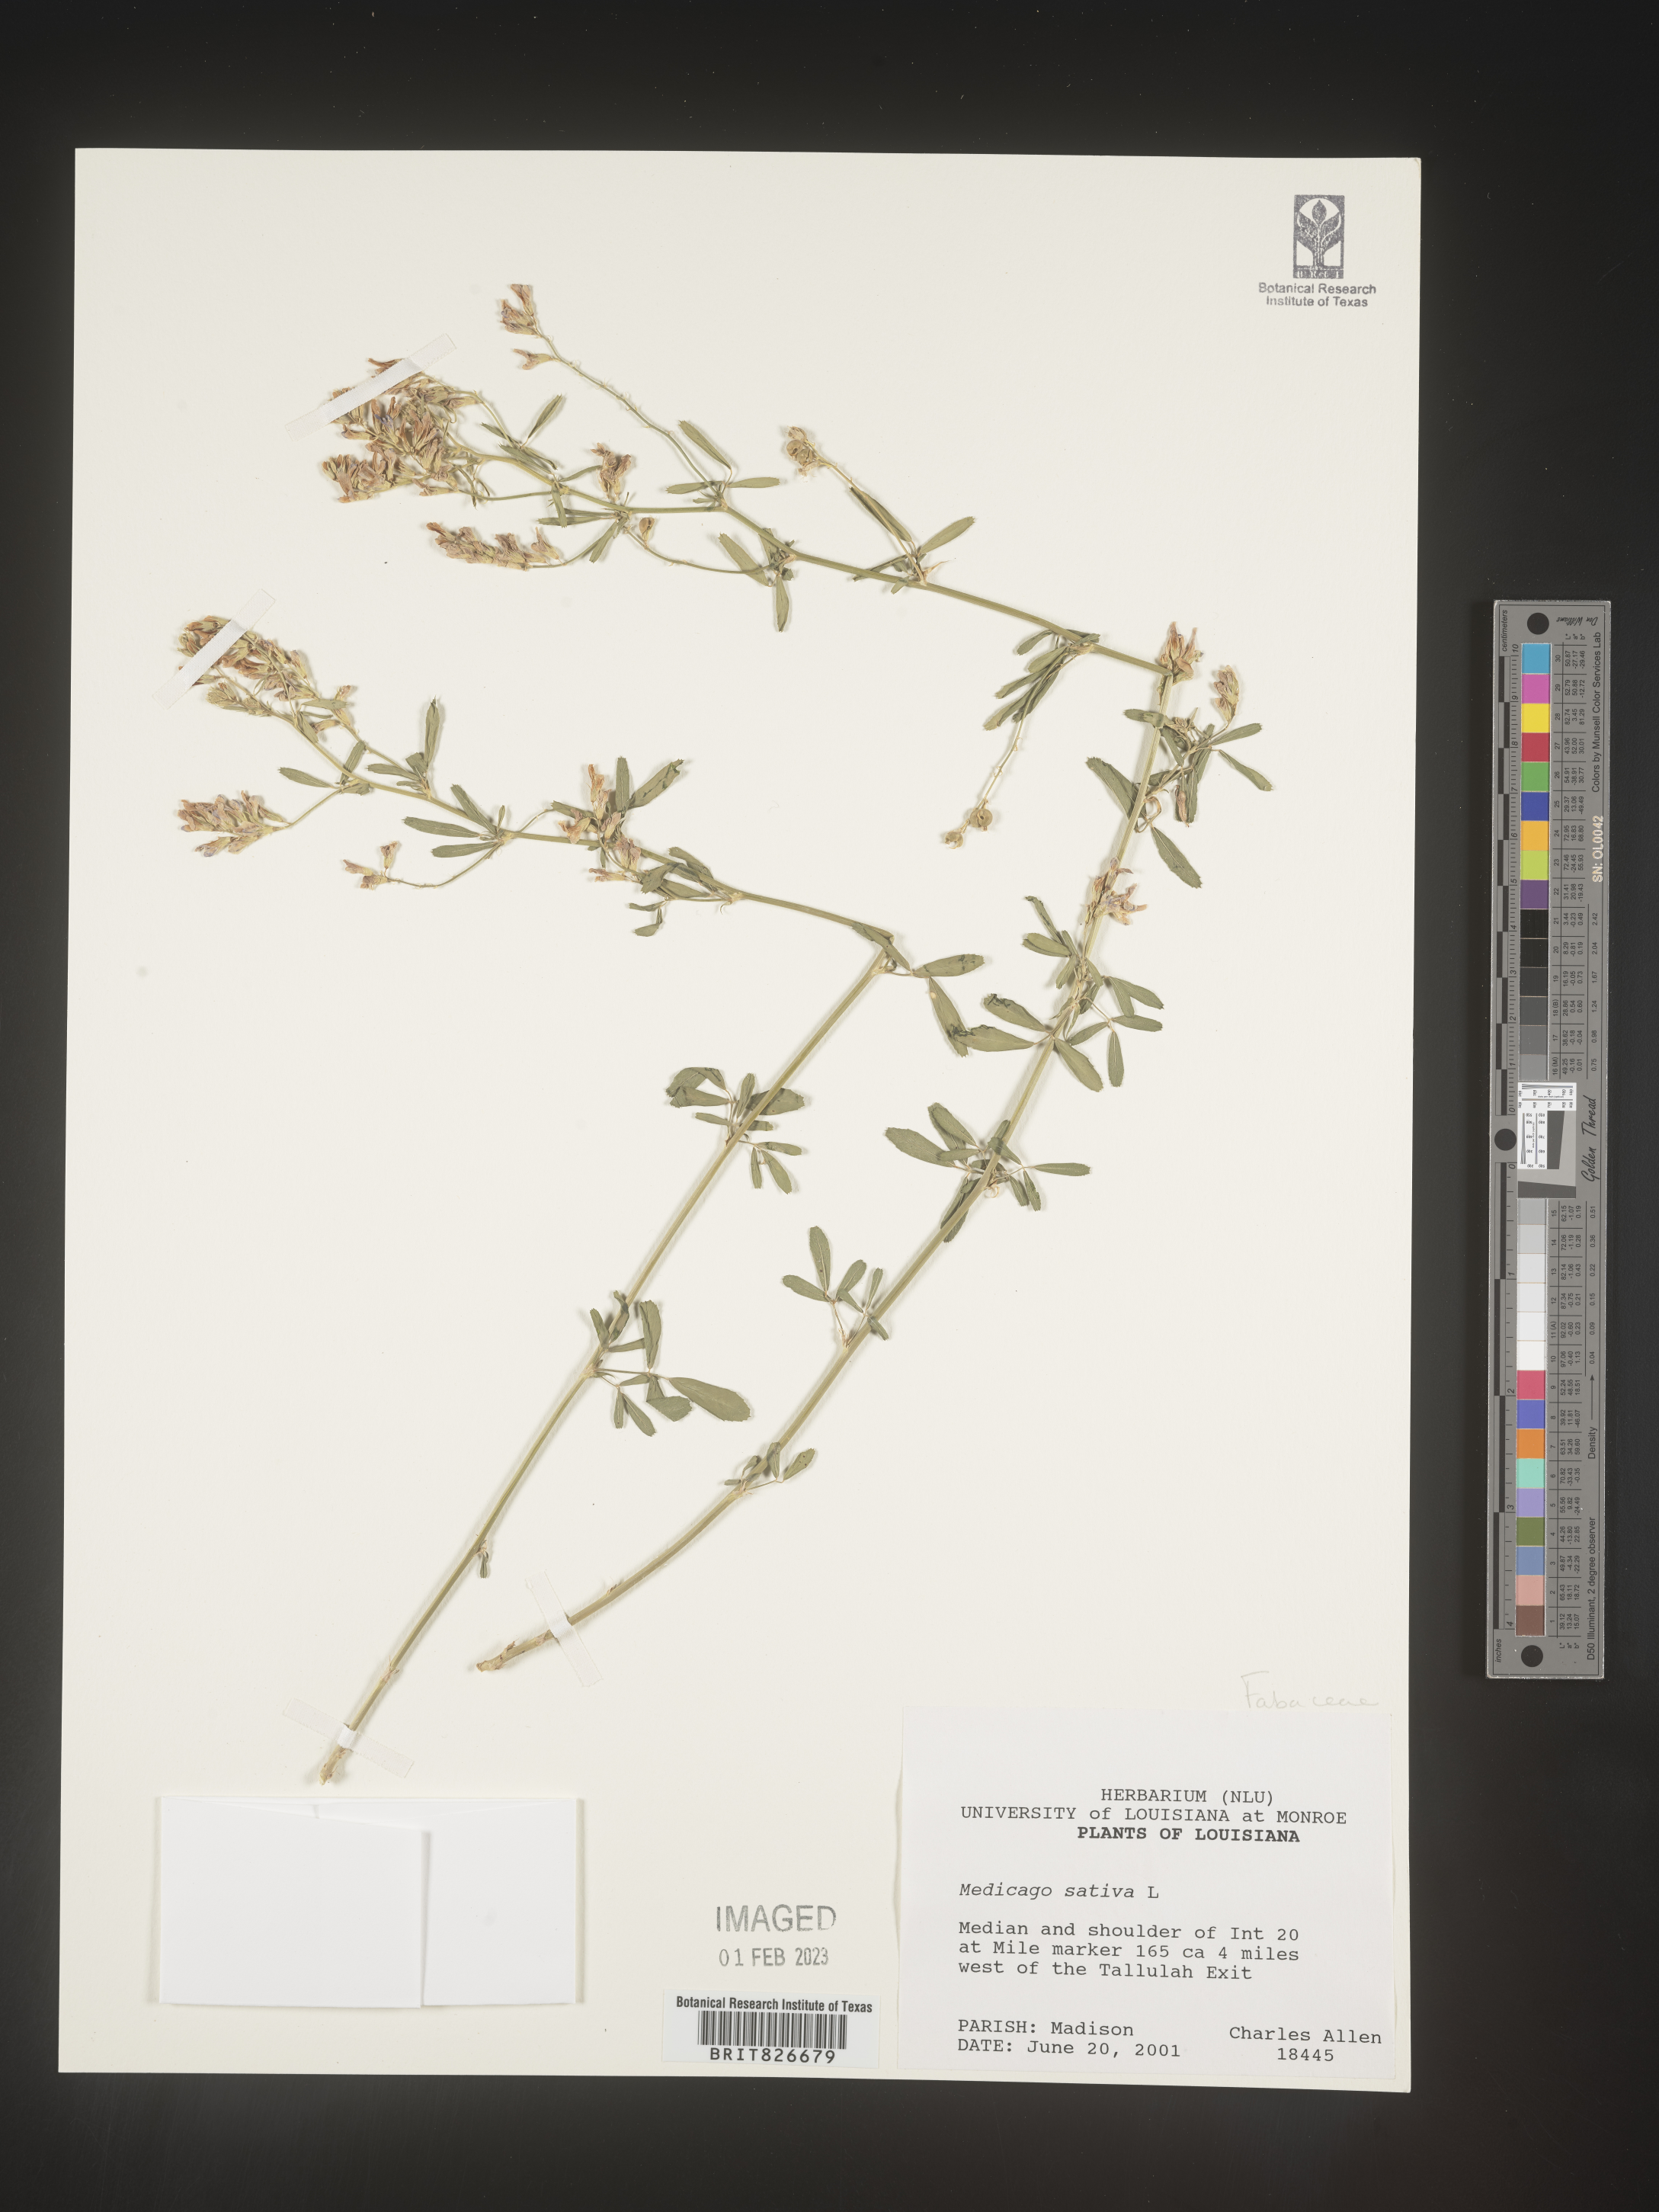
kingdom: Plantae
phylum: Tracheophyta
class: Magnoliopsida
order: Fabales
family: Fabaceae
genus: Medicago
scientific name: Medicago sativa
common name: Alfalfa
